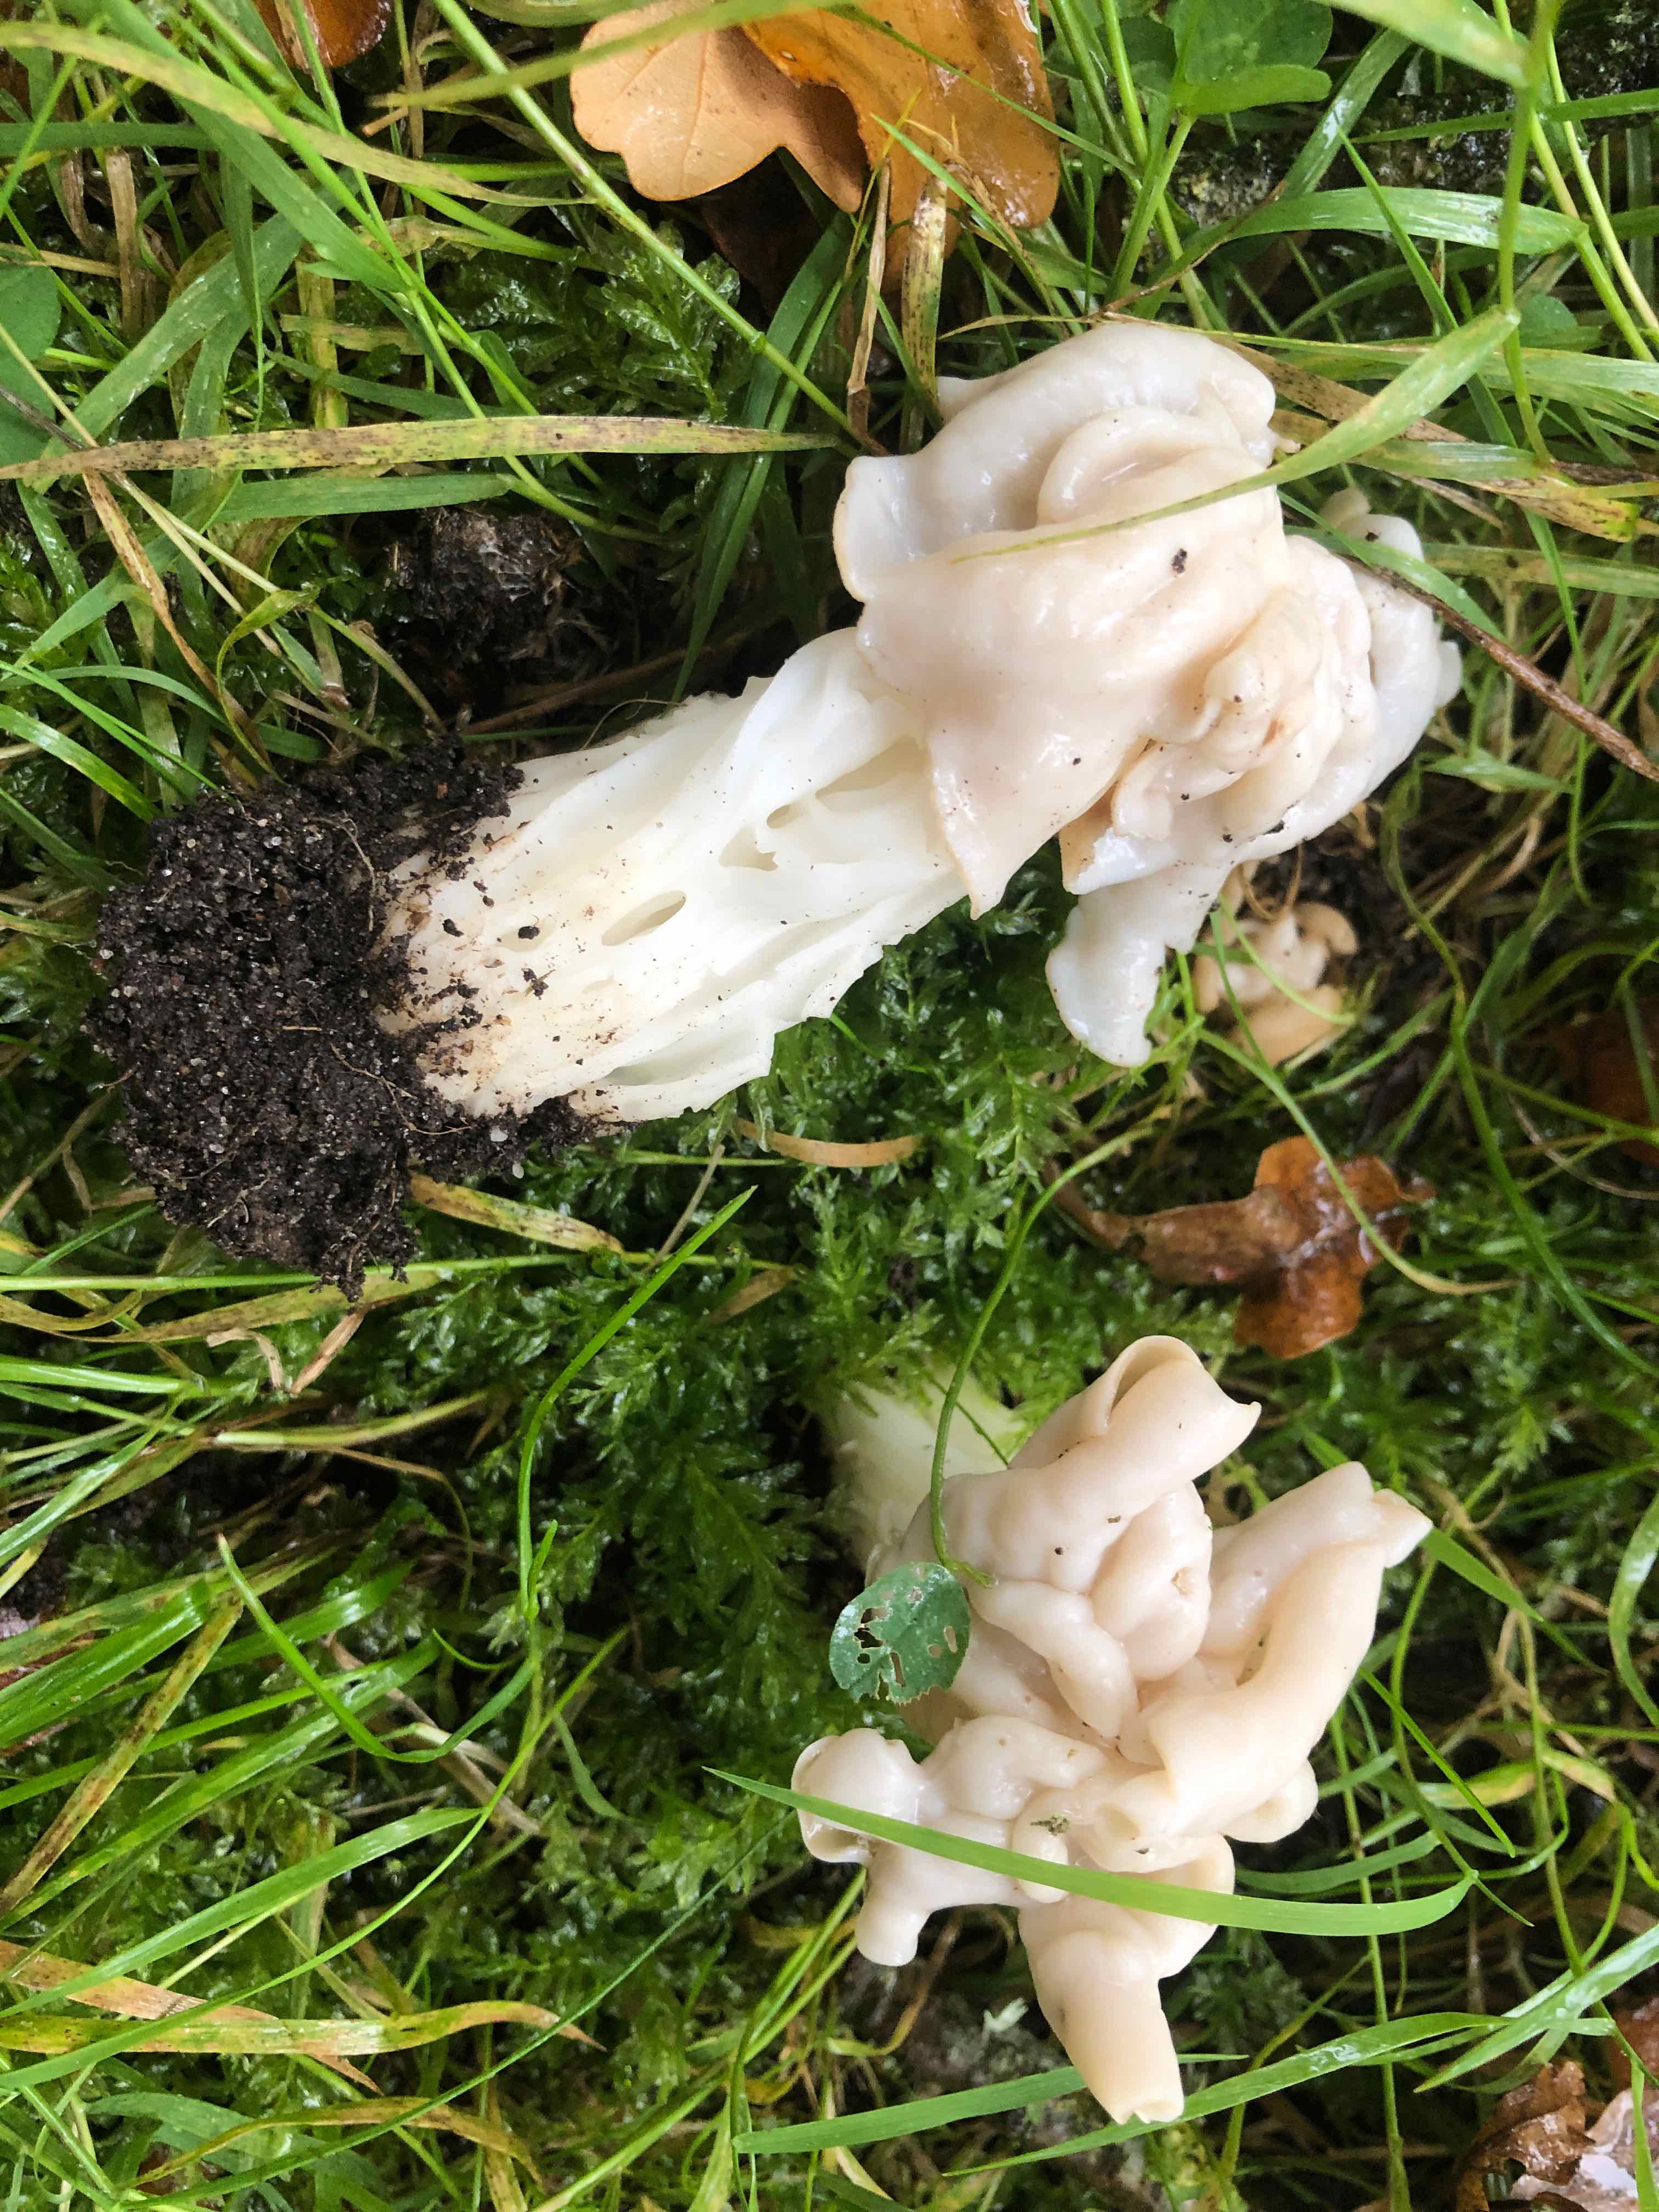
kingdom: Fungi
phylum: Ascomycota
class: Pezizomycetes
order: Pezizales
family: Helvellaceae
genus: Helvella
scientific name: Helvella crispa
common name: kruset foldhat
